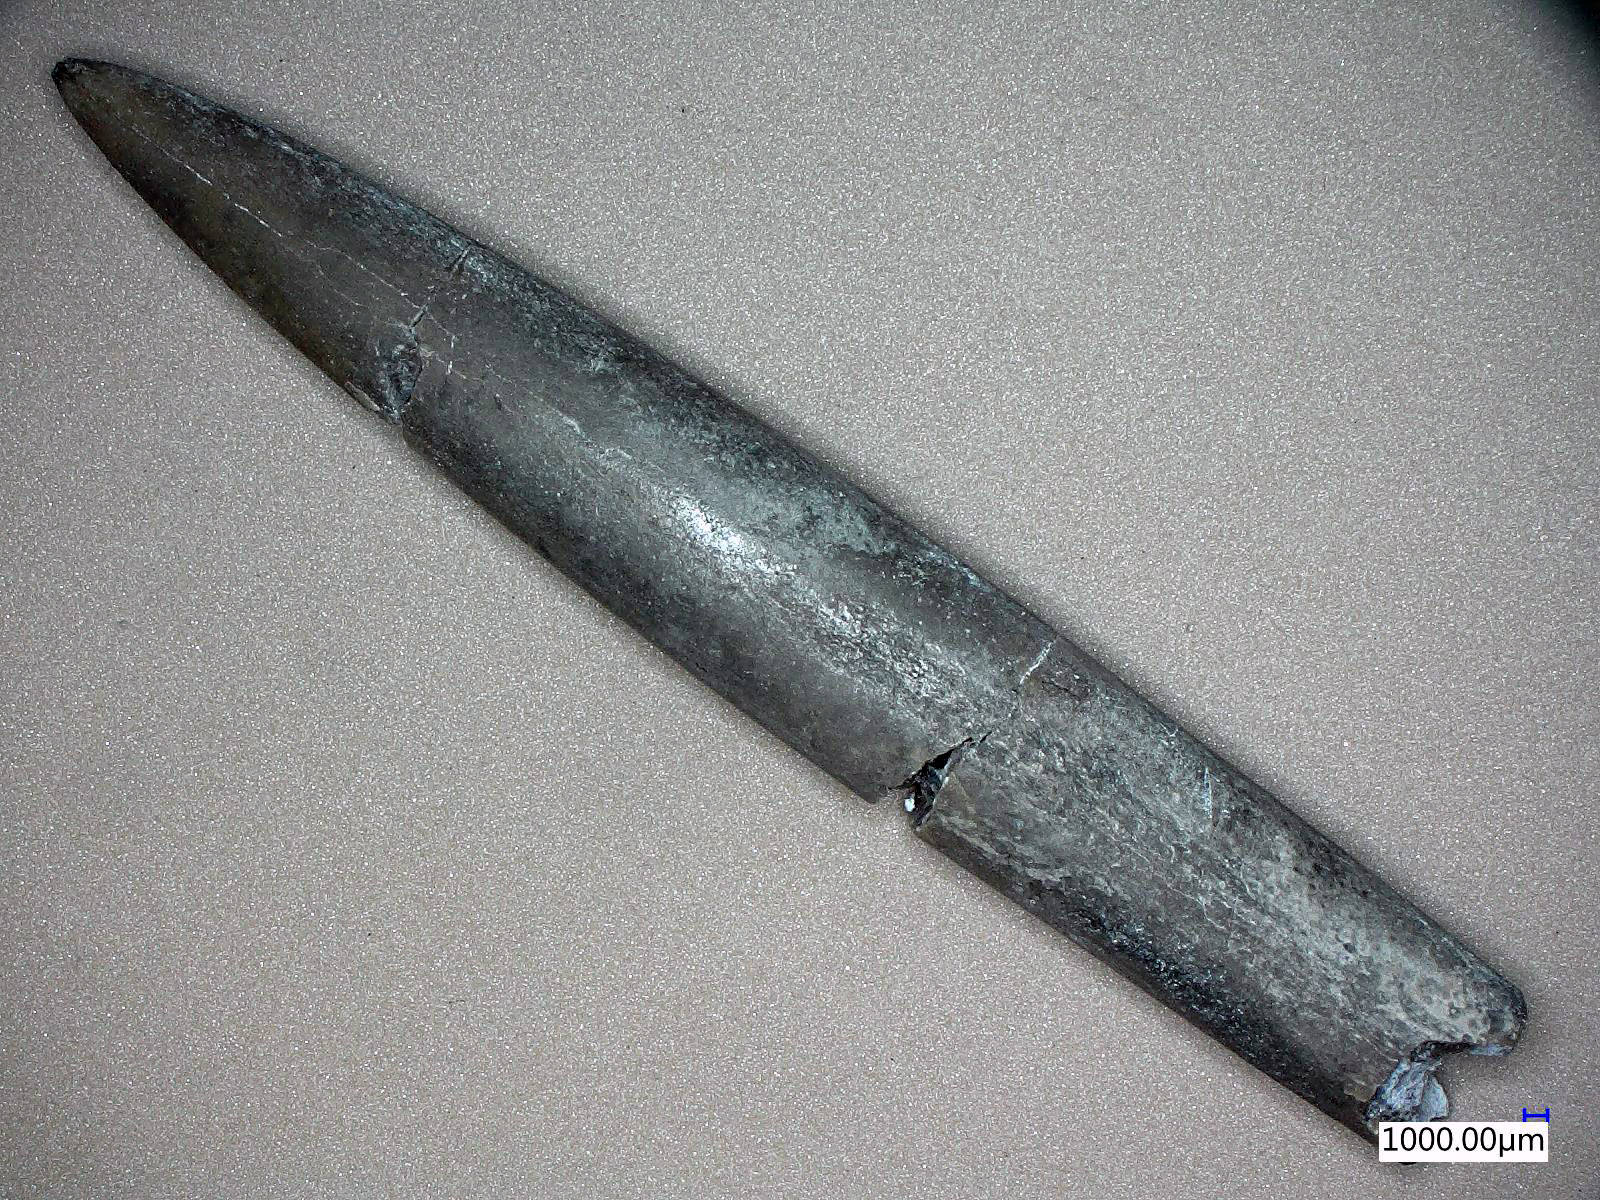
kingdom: Animalia
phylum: Mollusca
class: Cephalopoda
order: Belemnitida
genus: Gastrobelus
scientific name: Gastrobelus
